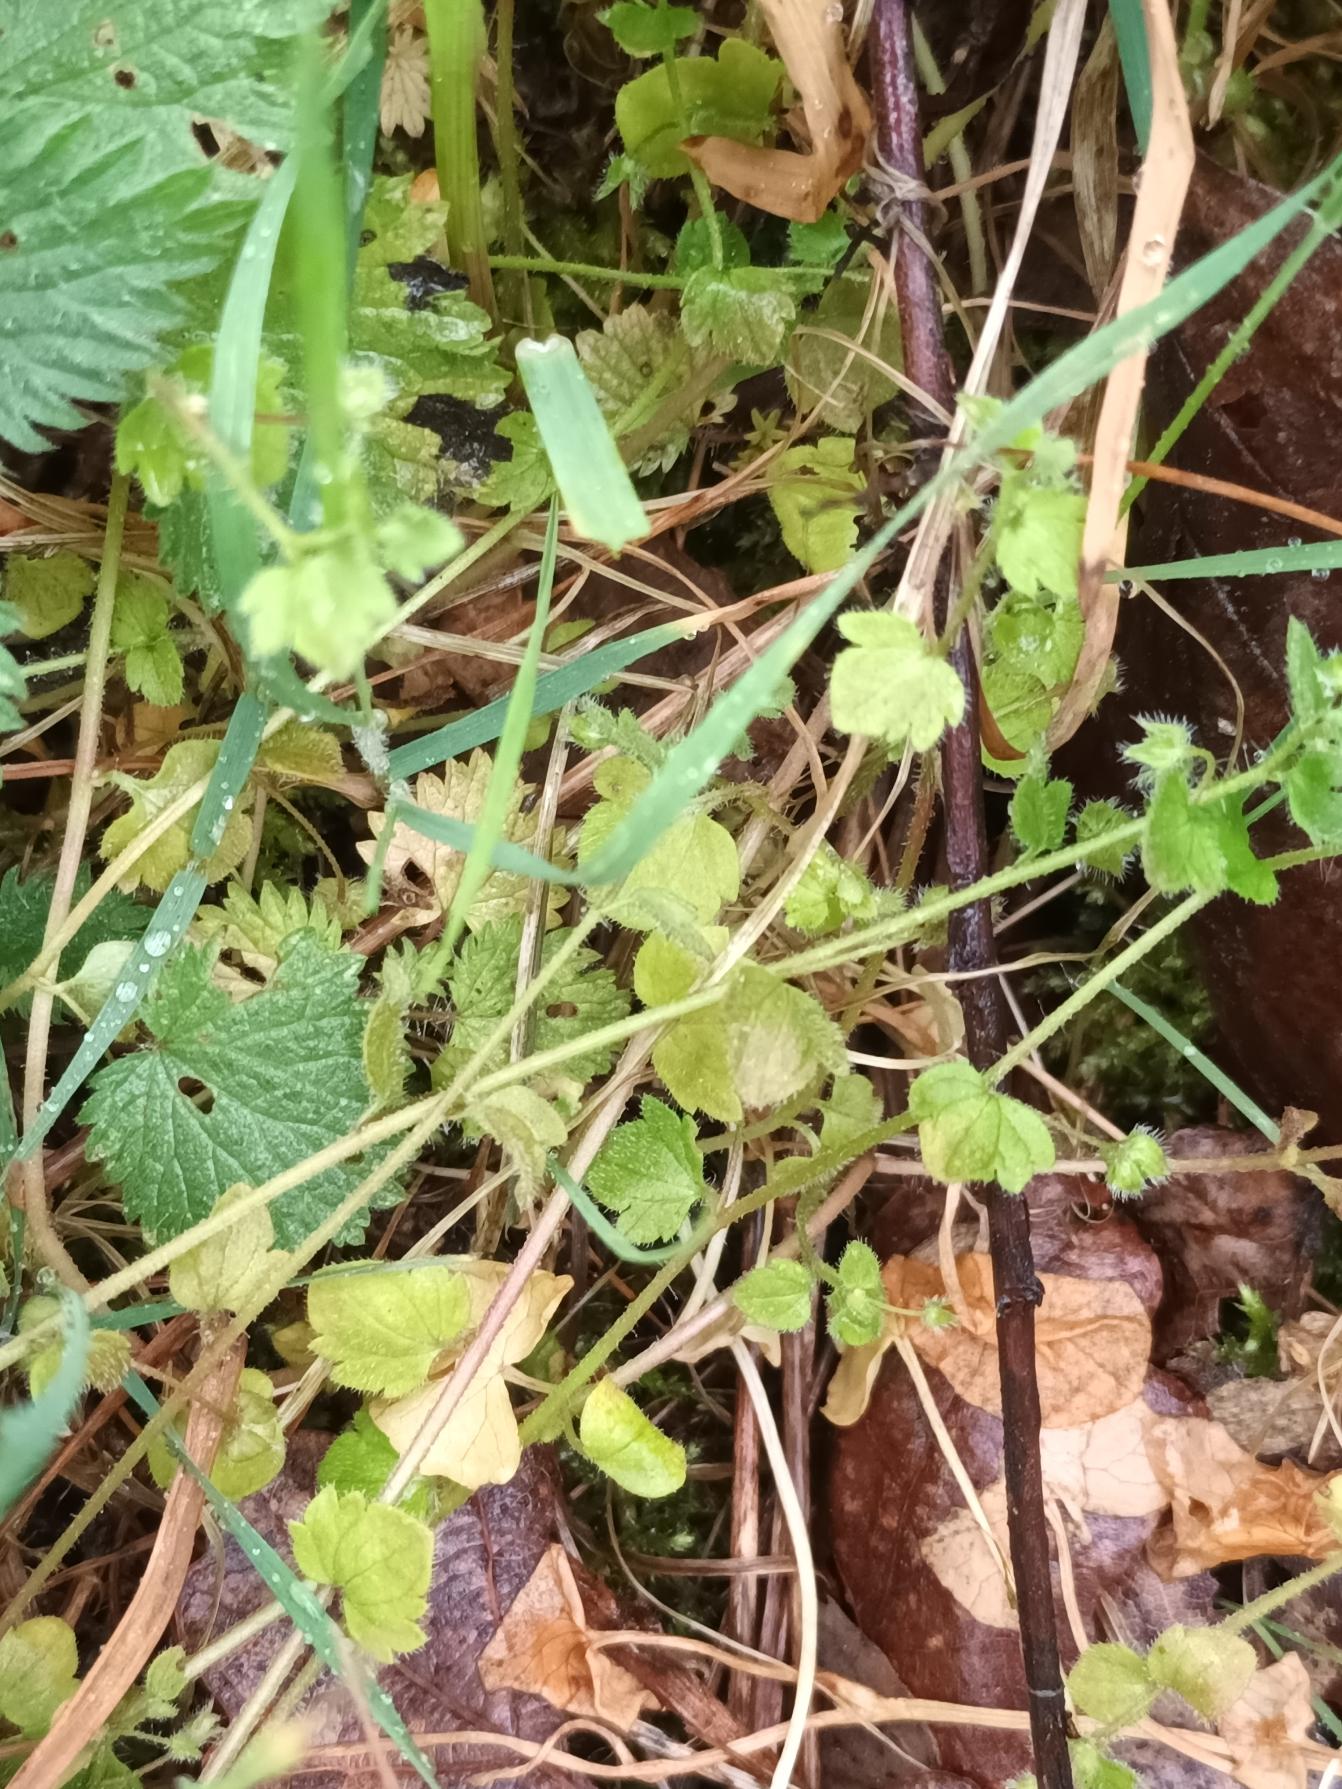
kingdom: Plantae
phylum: Tracheophyta
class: Magnoliopsida
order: Lamiales
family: Plantaginaceae
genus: Veronica
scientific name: Veronica sublobata
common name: Krat-ærenpris
